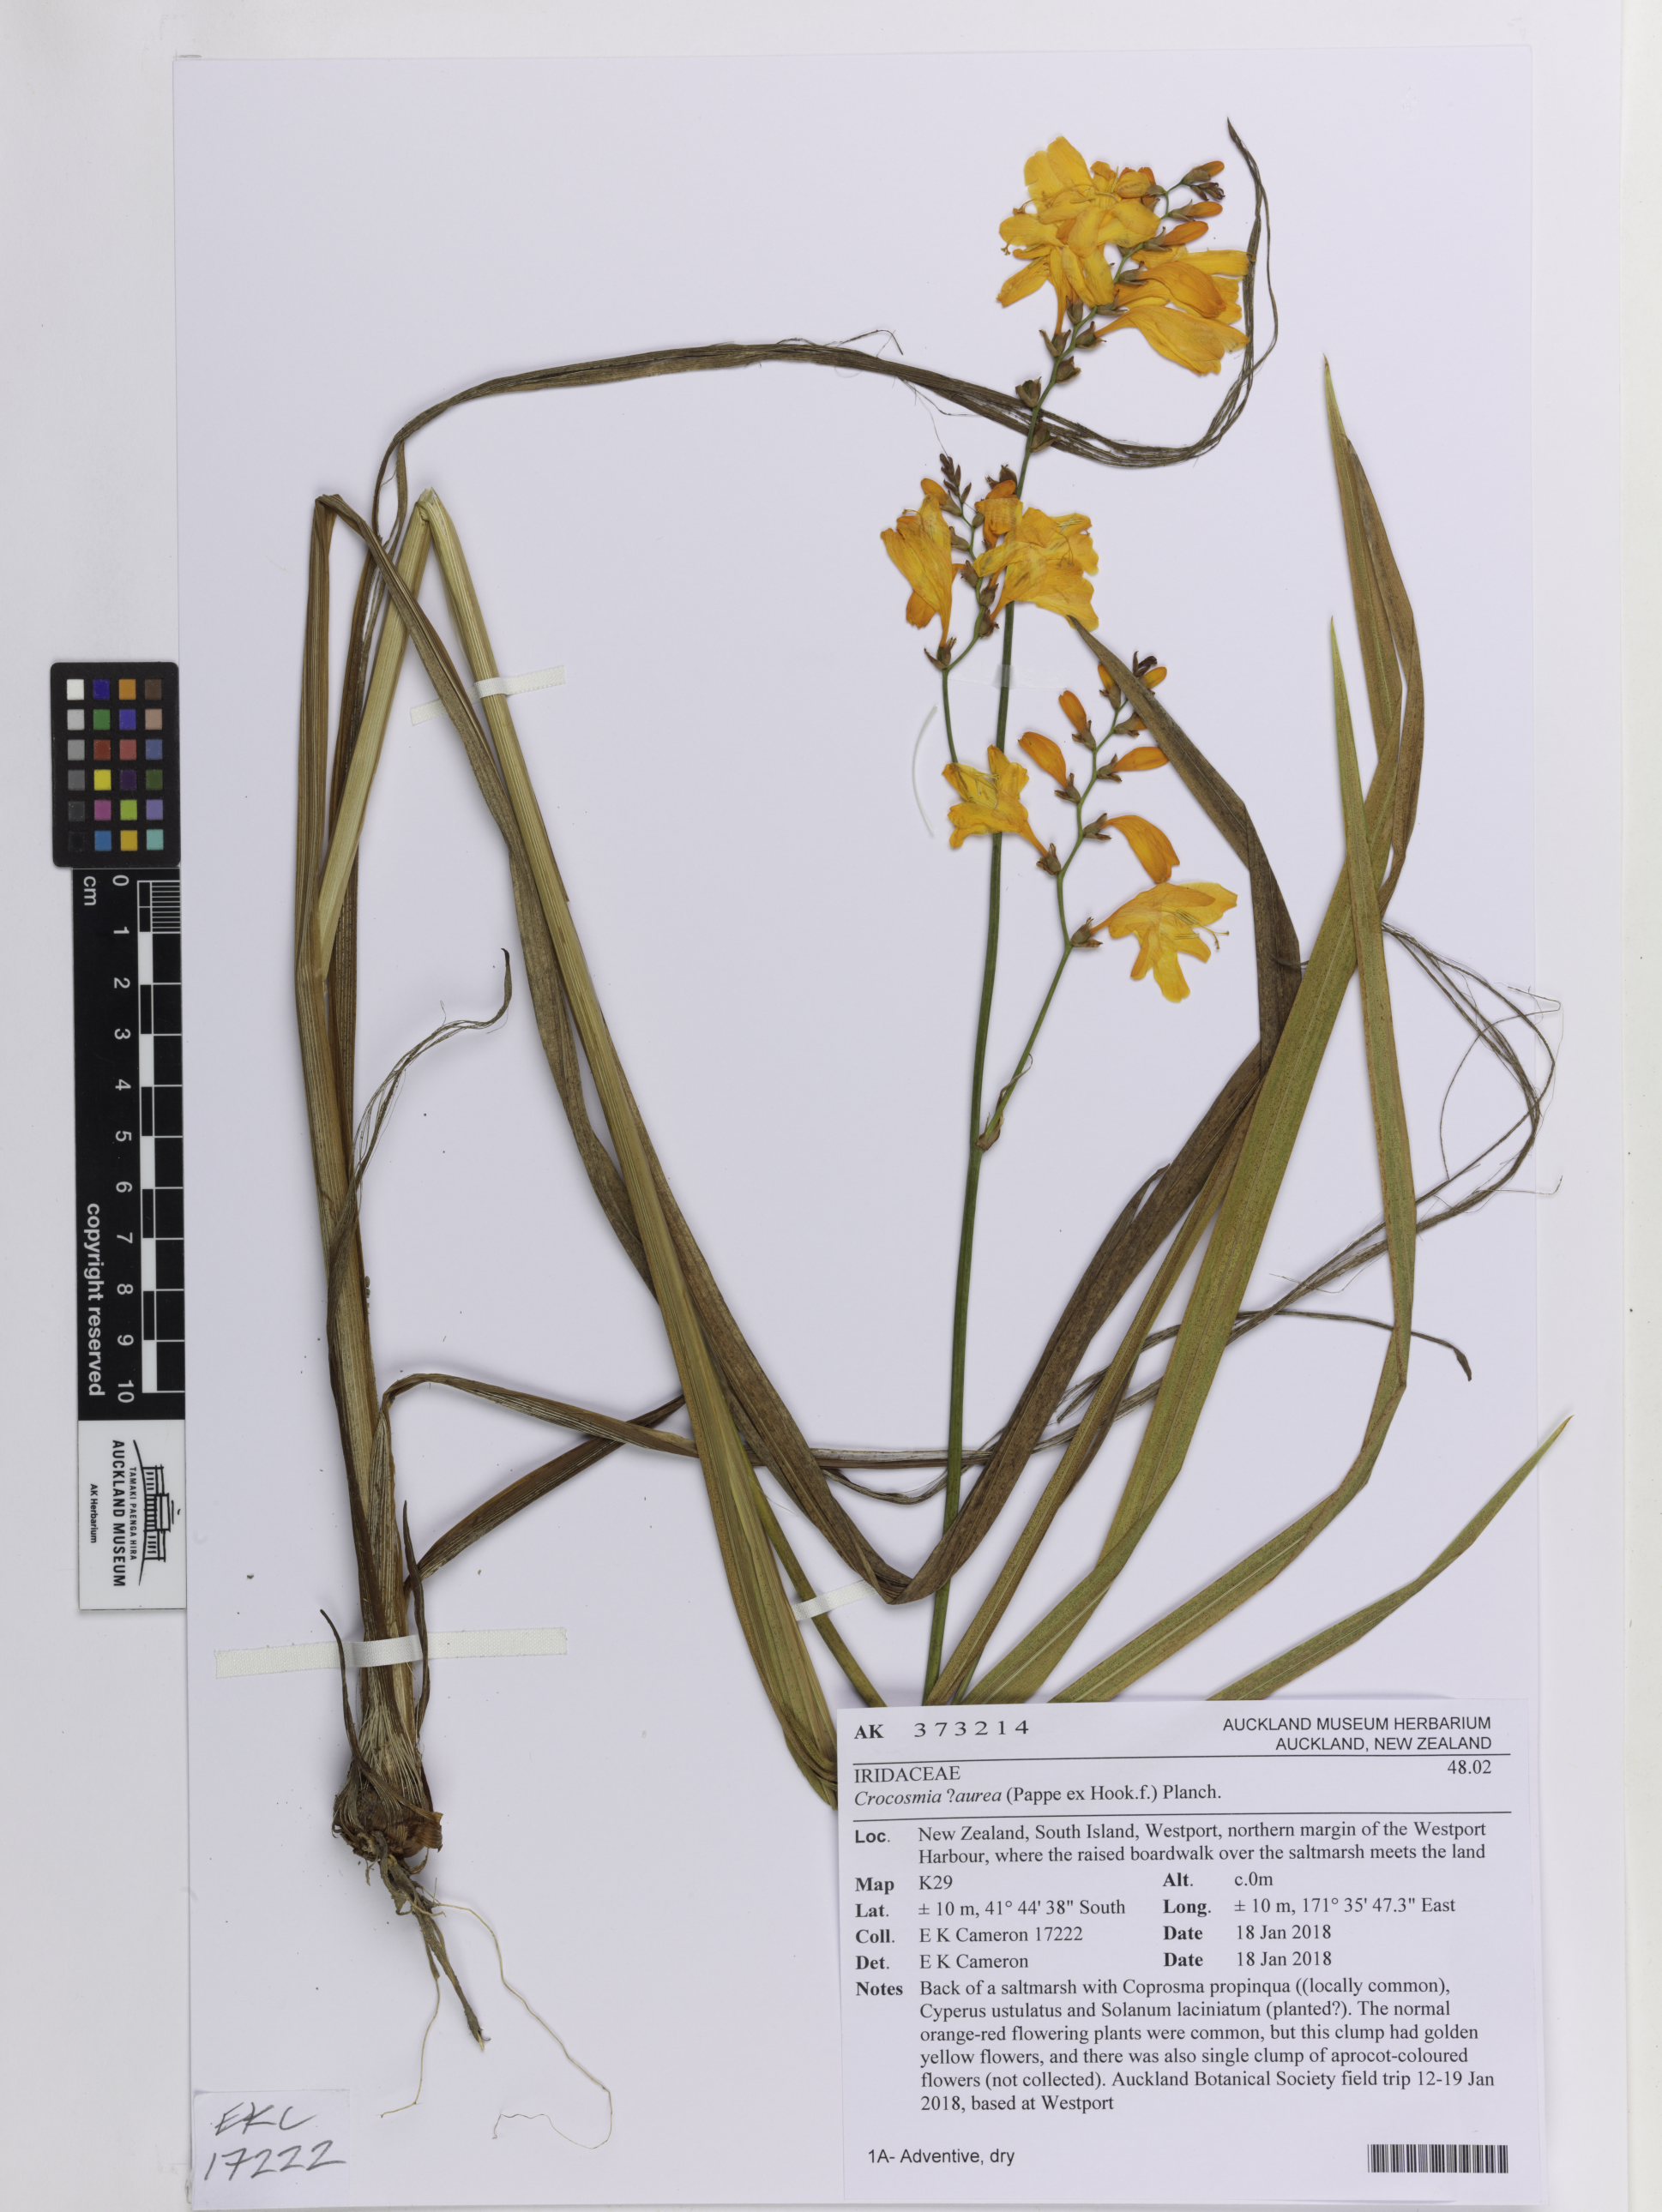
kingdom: Plantae
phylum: Tracheophyta
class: Liliopsida
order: Asparagales
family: Iridaceae
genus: Crocosmia
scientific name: Crocosmia aurea
